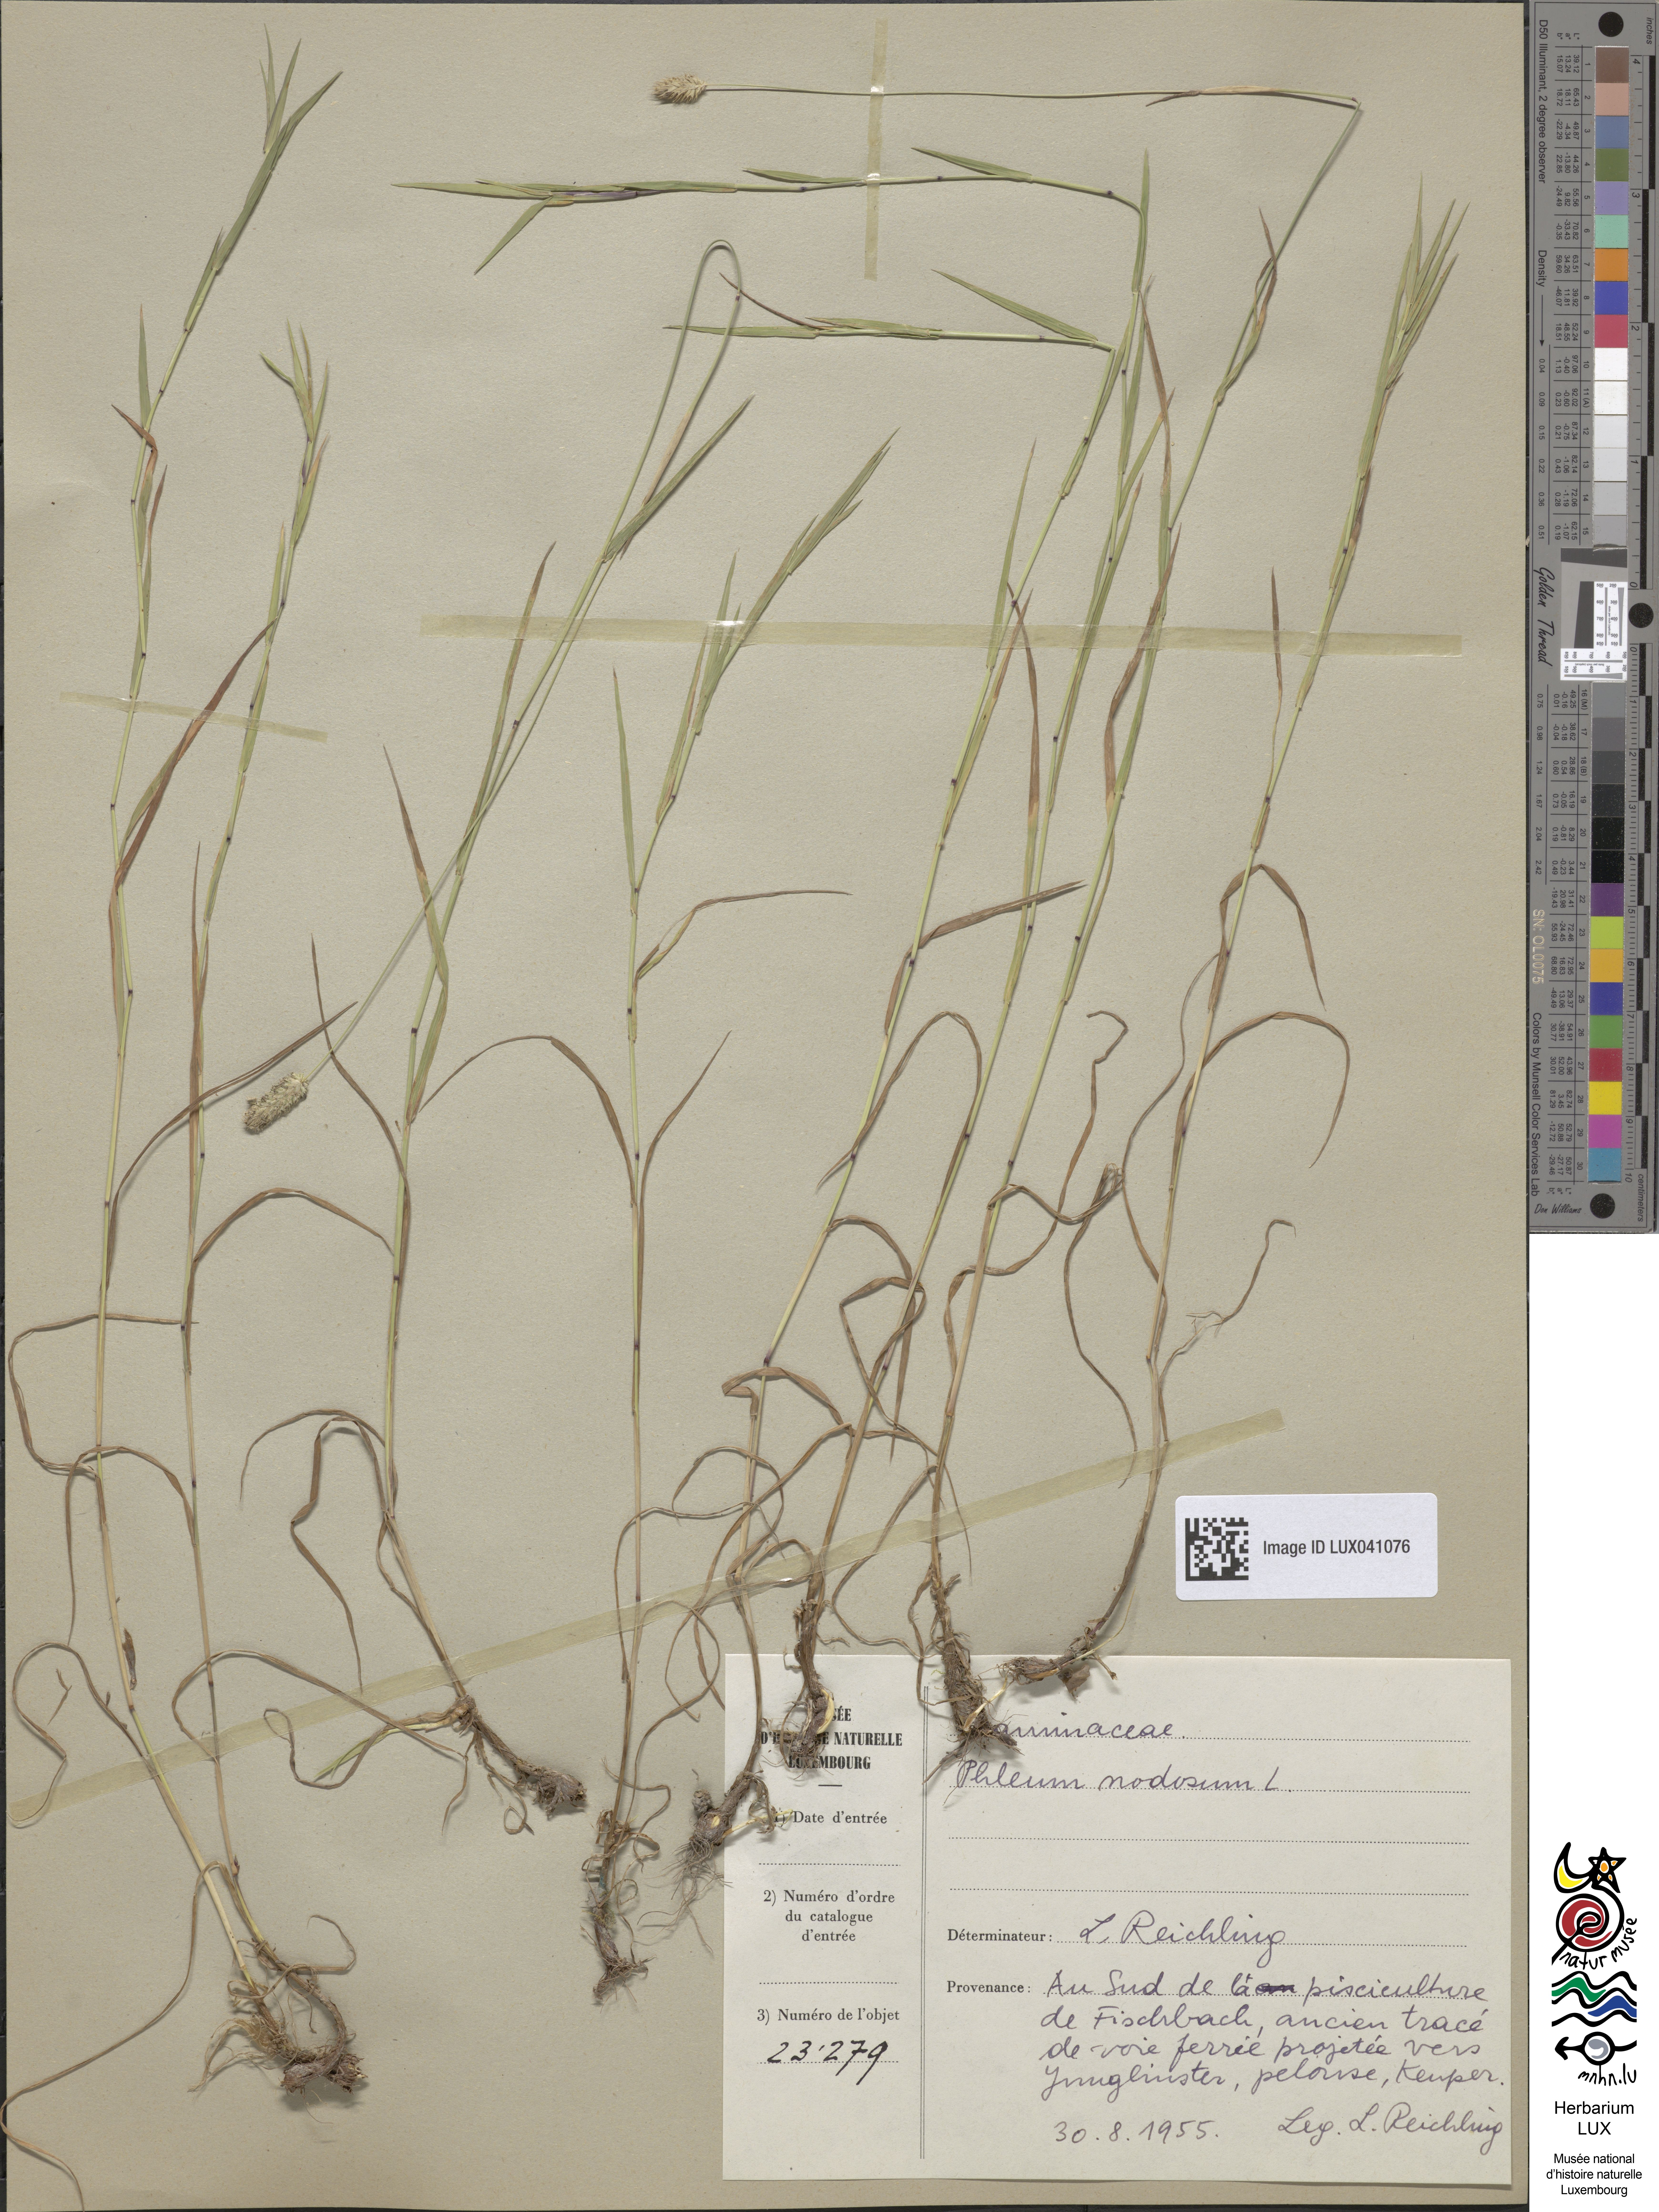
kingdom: Plantae
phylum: Tracheophyta
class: Liliopsida
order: Poales
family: Poaceae
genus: Phleum
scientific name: Phleum pratense
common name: Timothy grass
